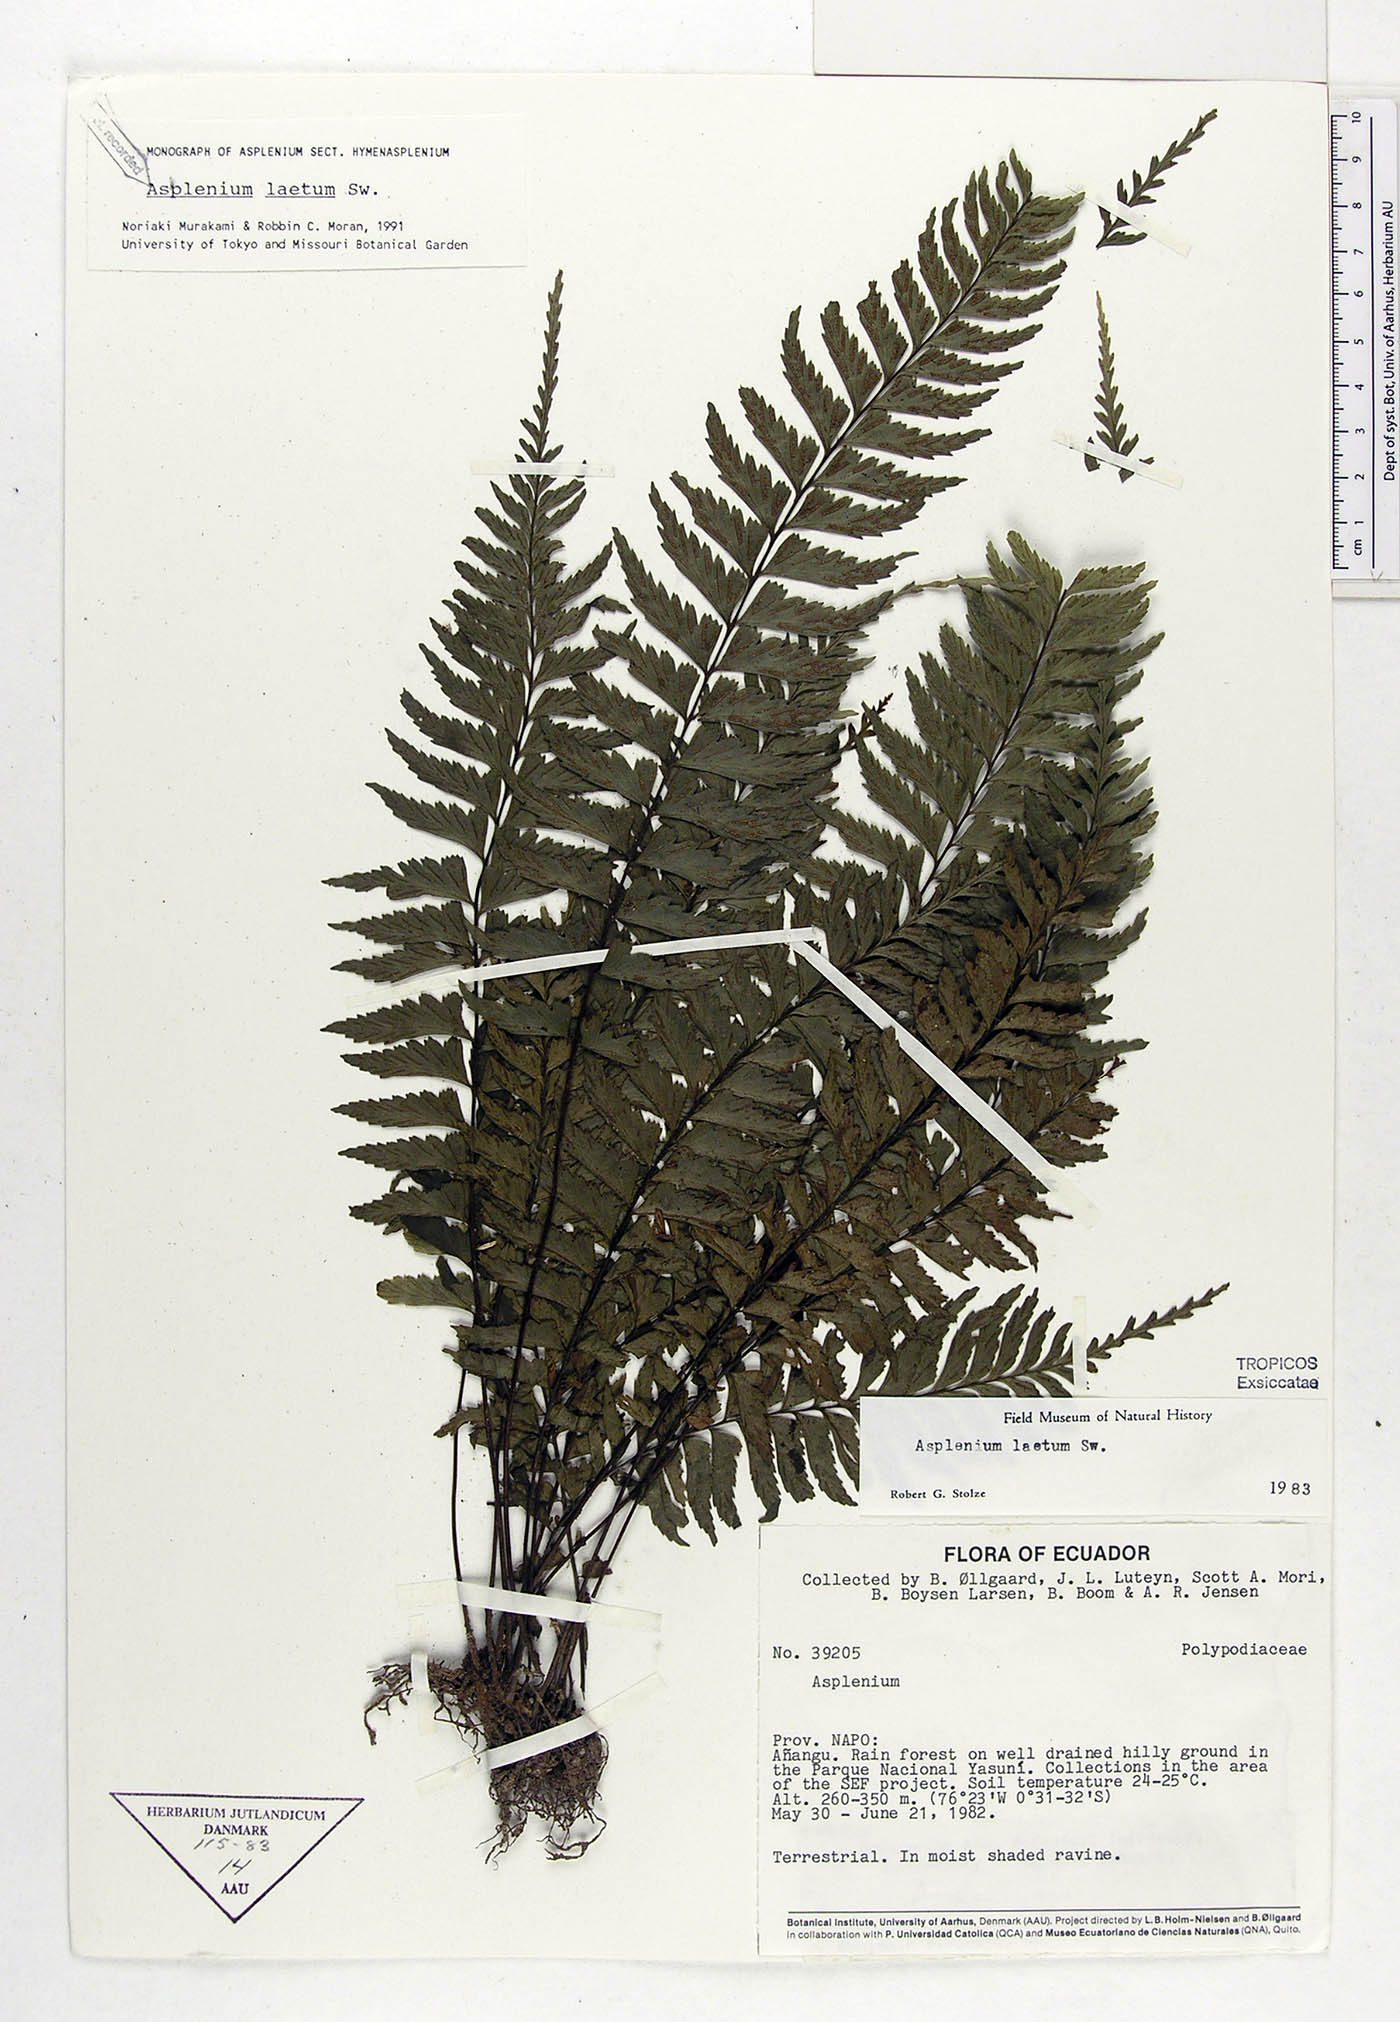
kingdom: Plantae
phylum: Tracheophyta
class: Polypodiopsida
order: Polypodiales
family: Aspleniaceae
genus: Hymenasplenium
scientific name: Hymenasplenium laetum
